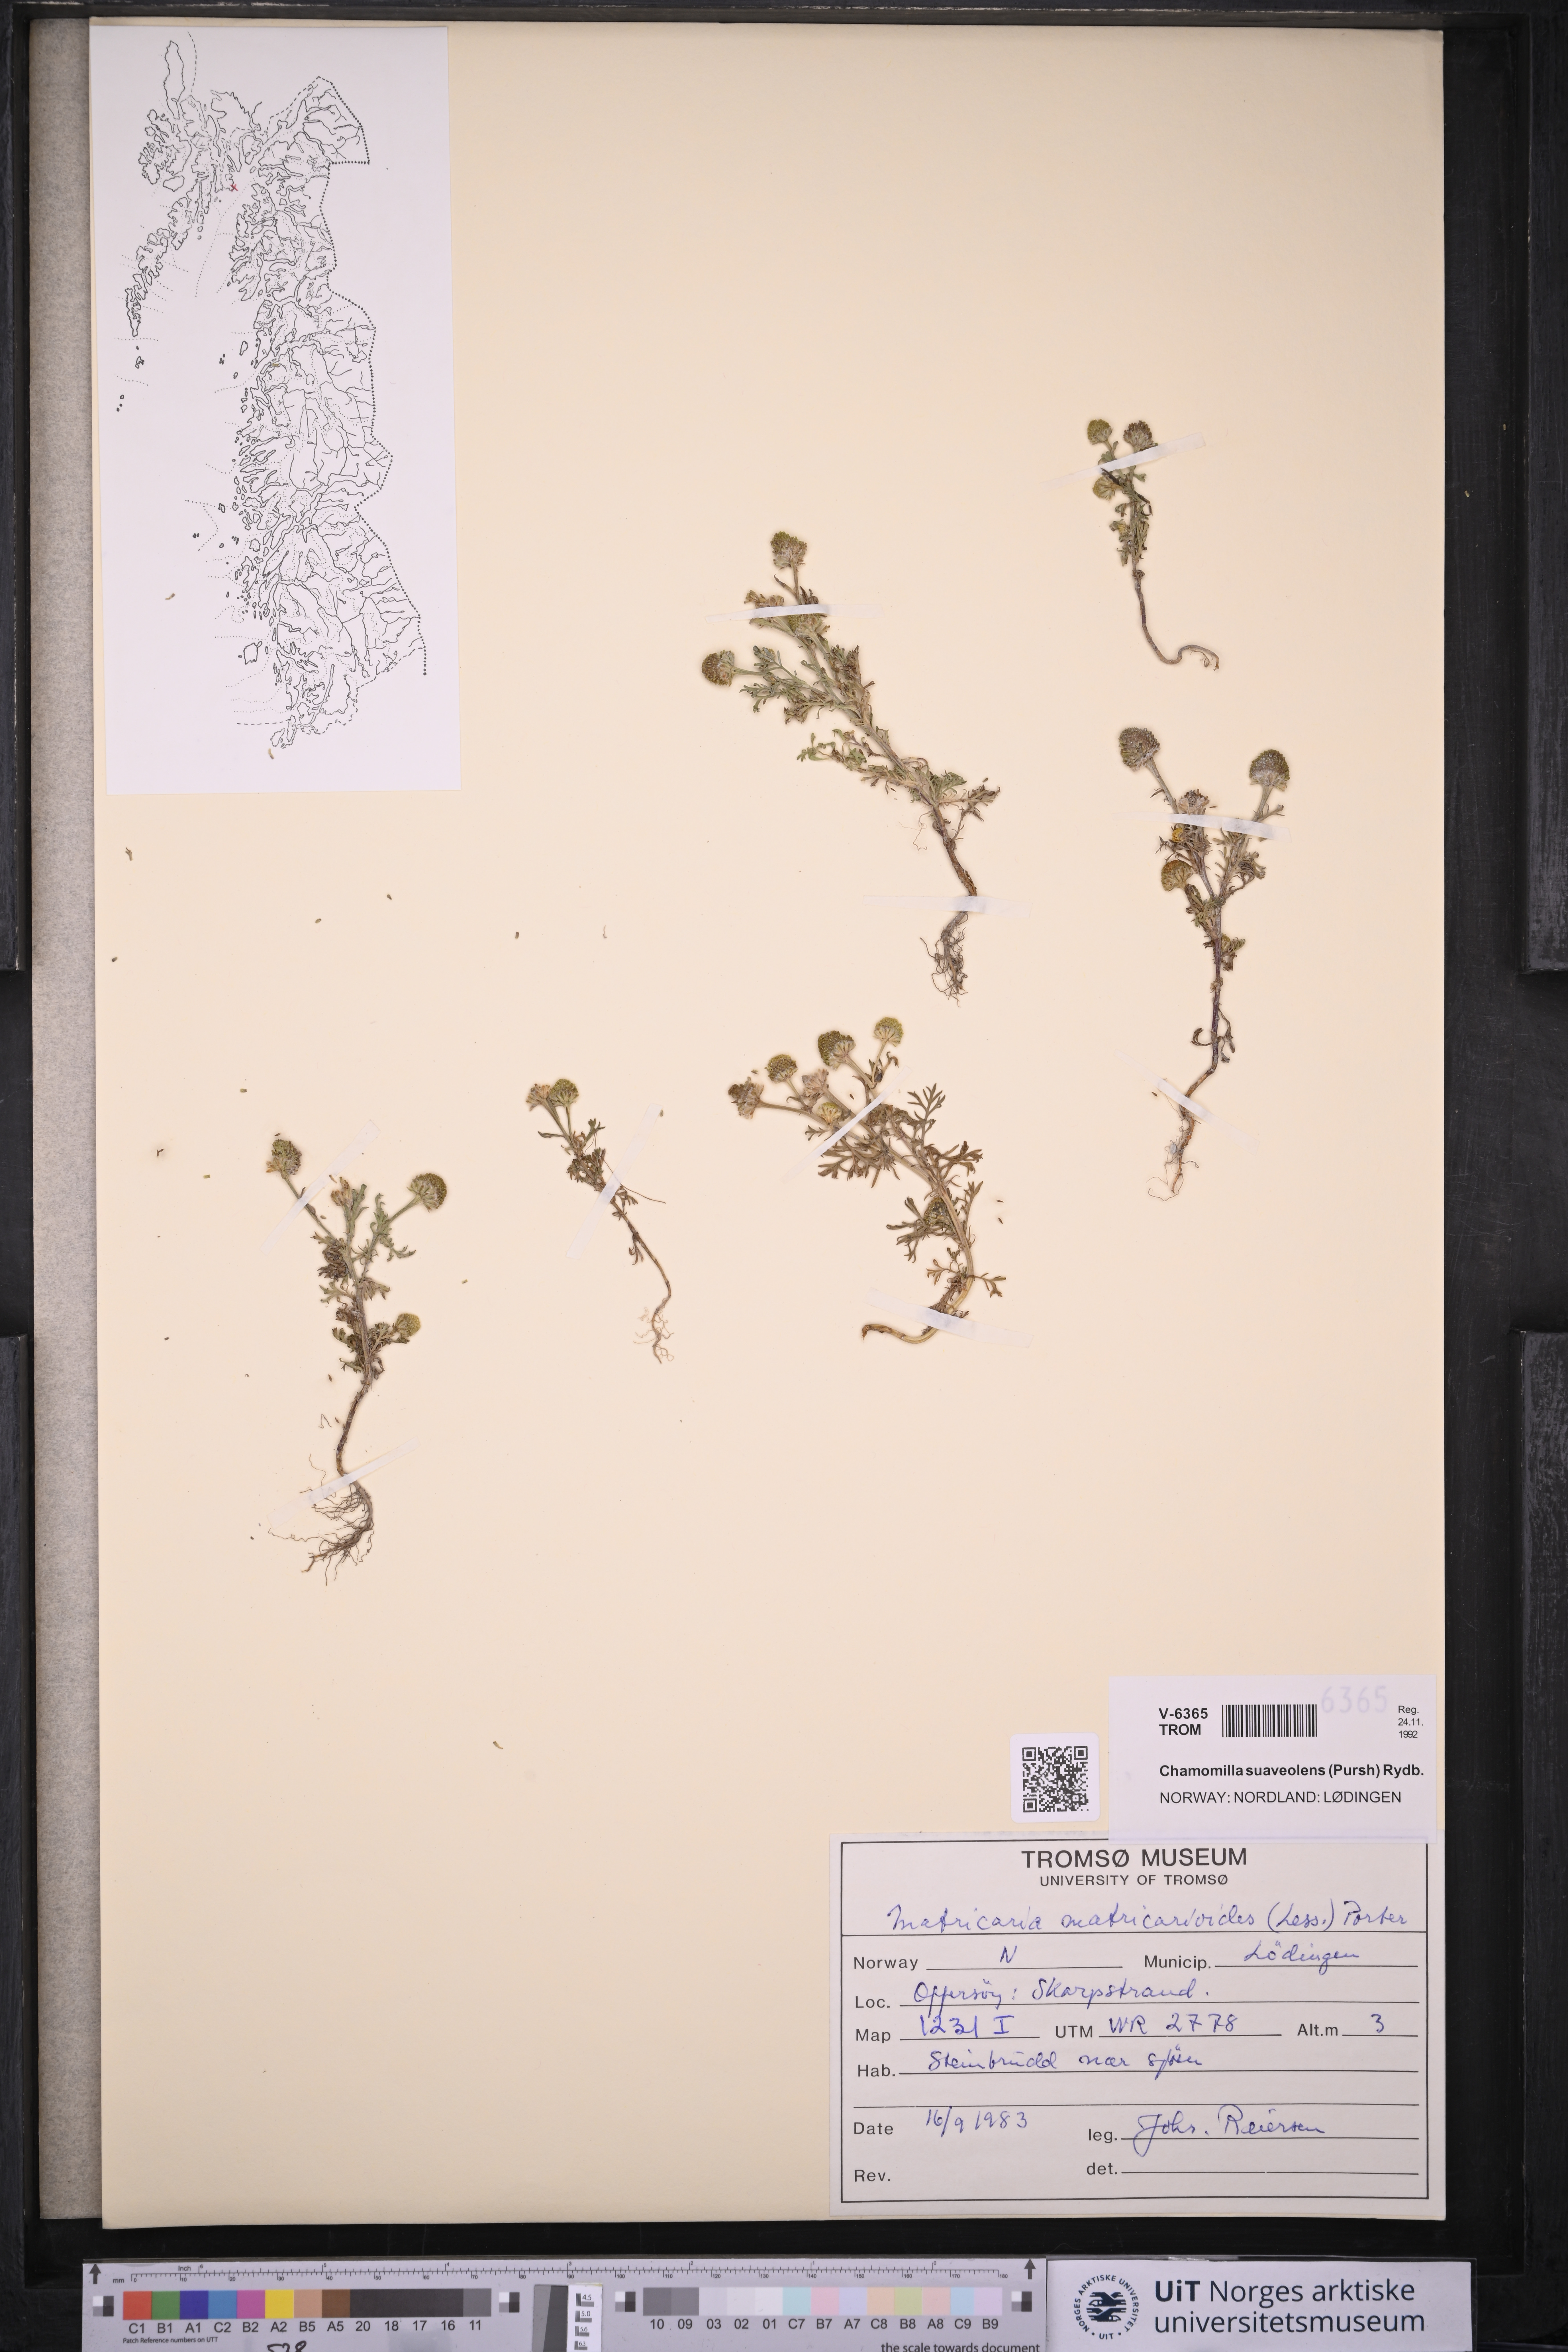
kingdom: Plantae
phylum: Tracheophyta
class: Magnoliopsida
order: Asterales
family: Asteraceae
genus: Matricaria
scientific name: Matricaria discoidea
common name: Disc mayweed
